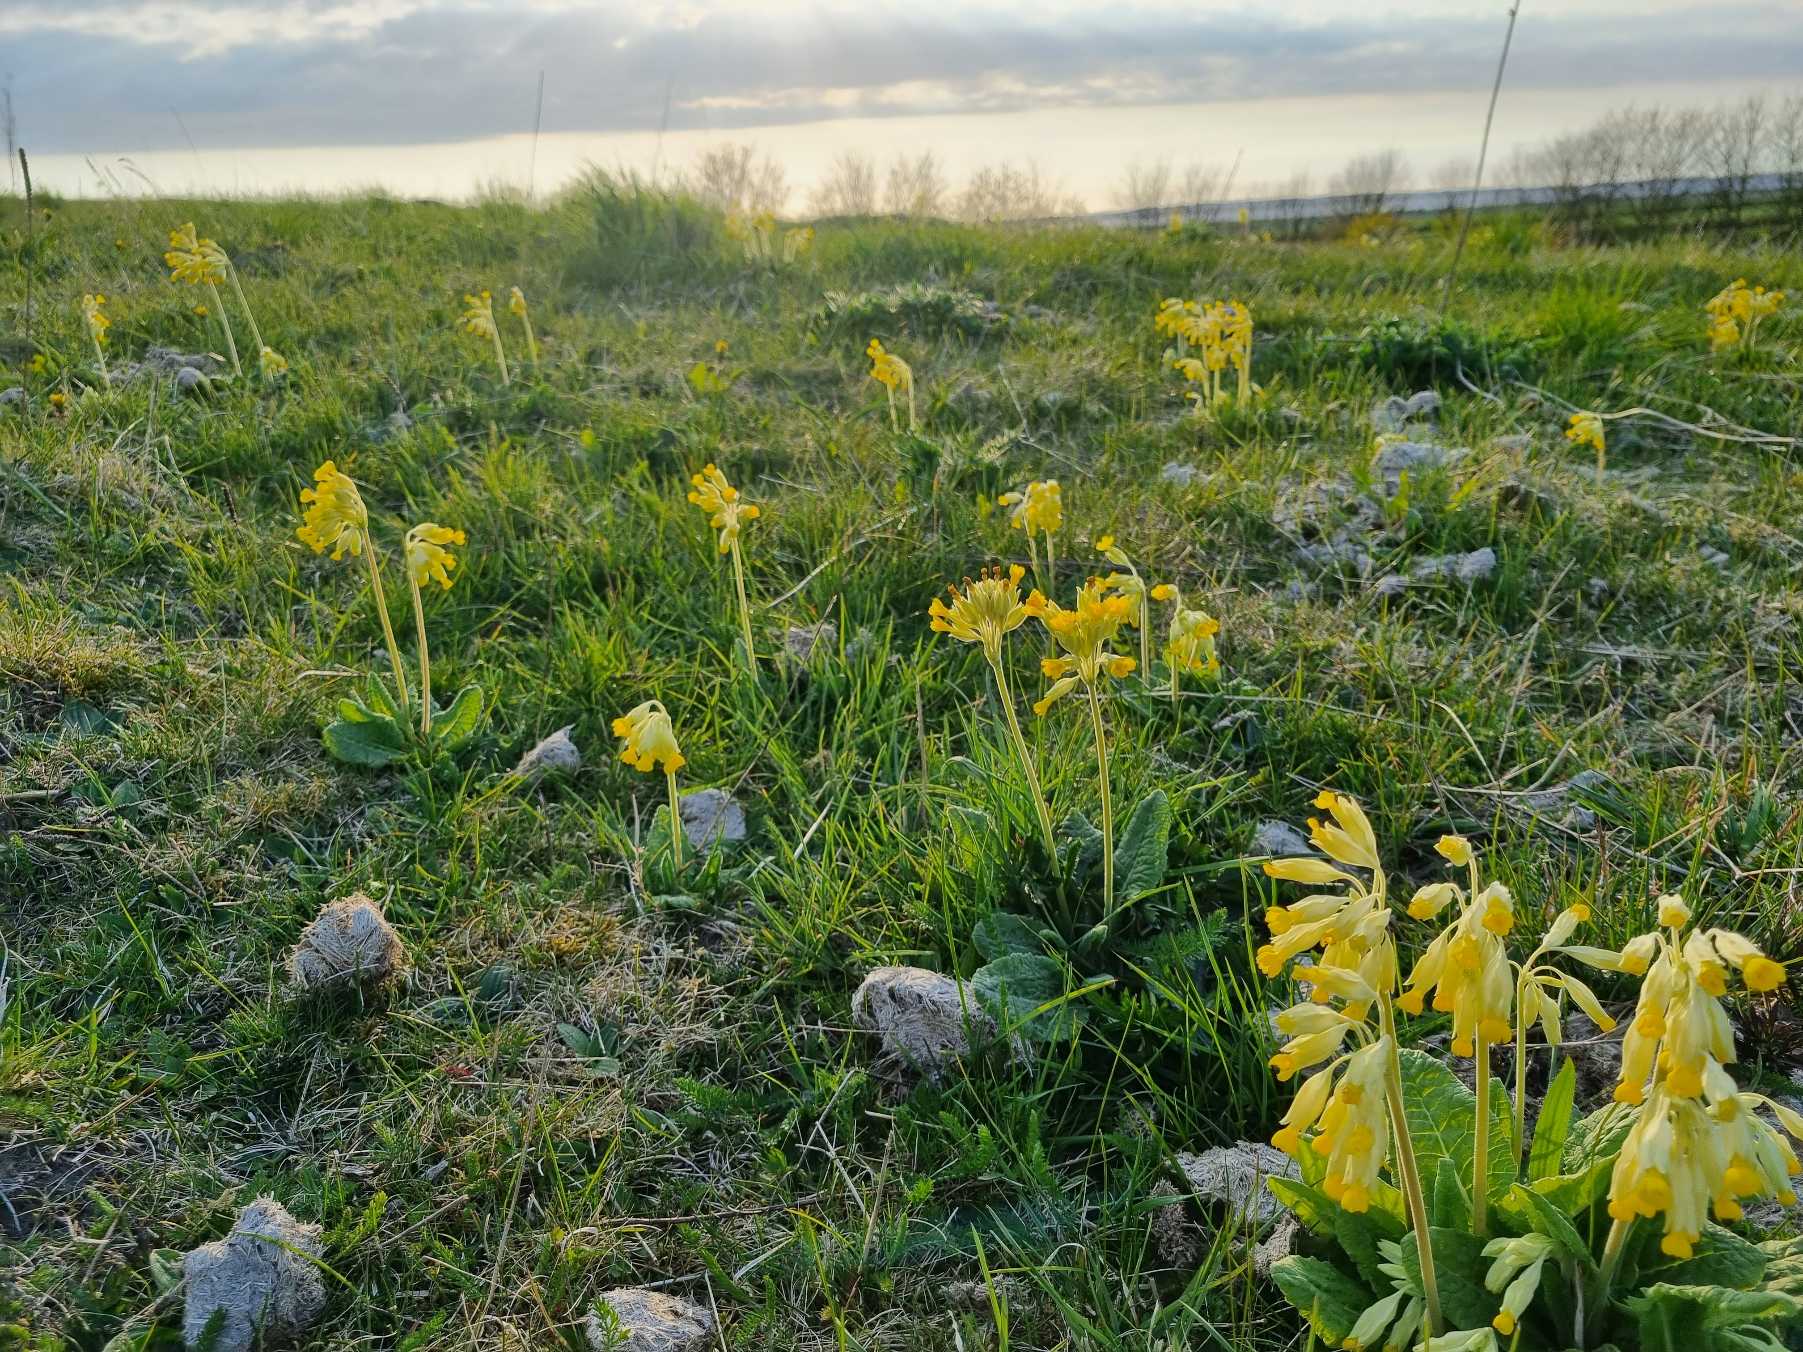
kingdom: Plantae
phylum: Tracheophyta
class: Magnoliopsida
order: Ericales
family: Primulaceae
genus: Primula
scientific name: Primula veris
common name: Hulkravet kodriver
